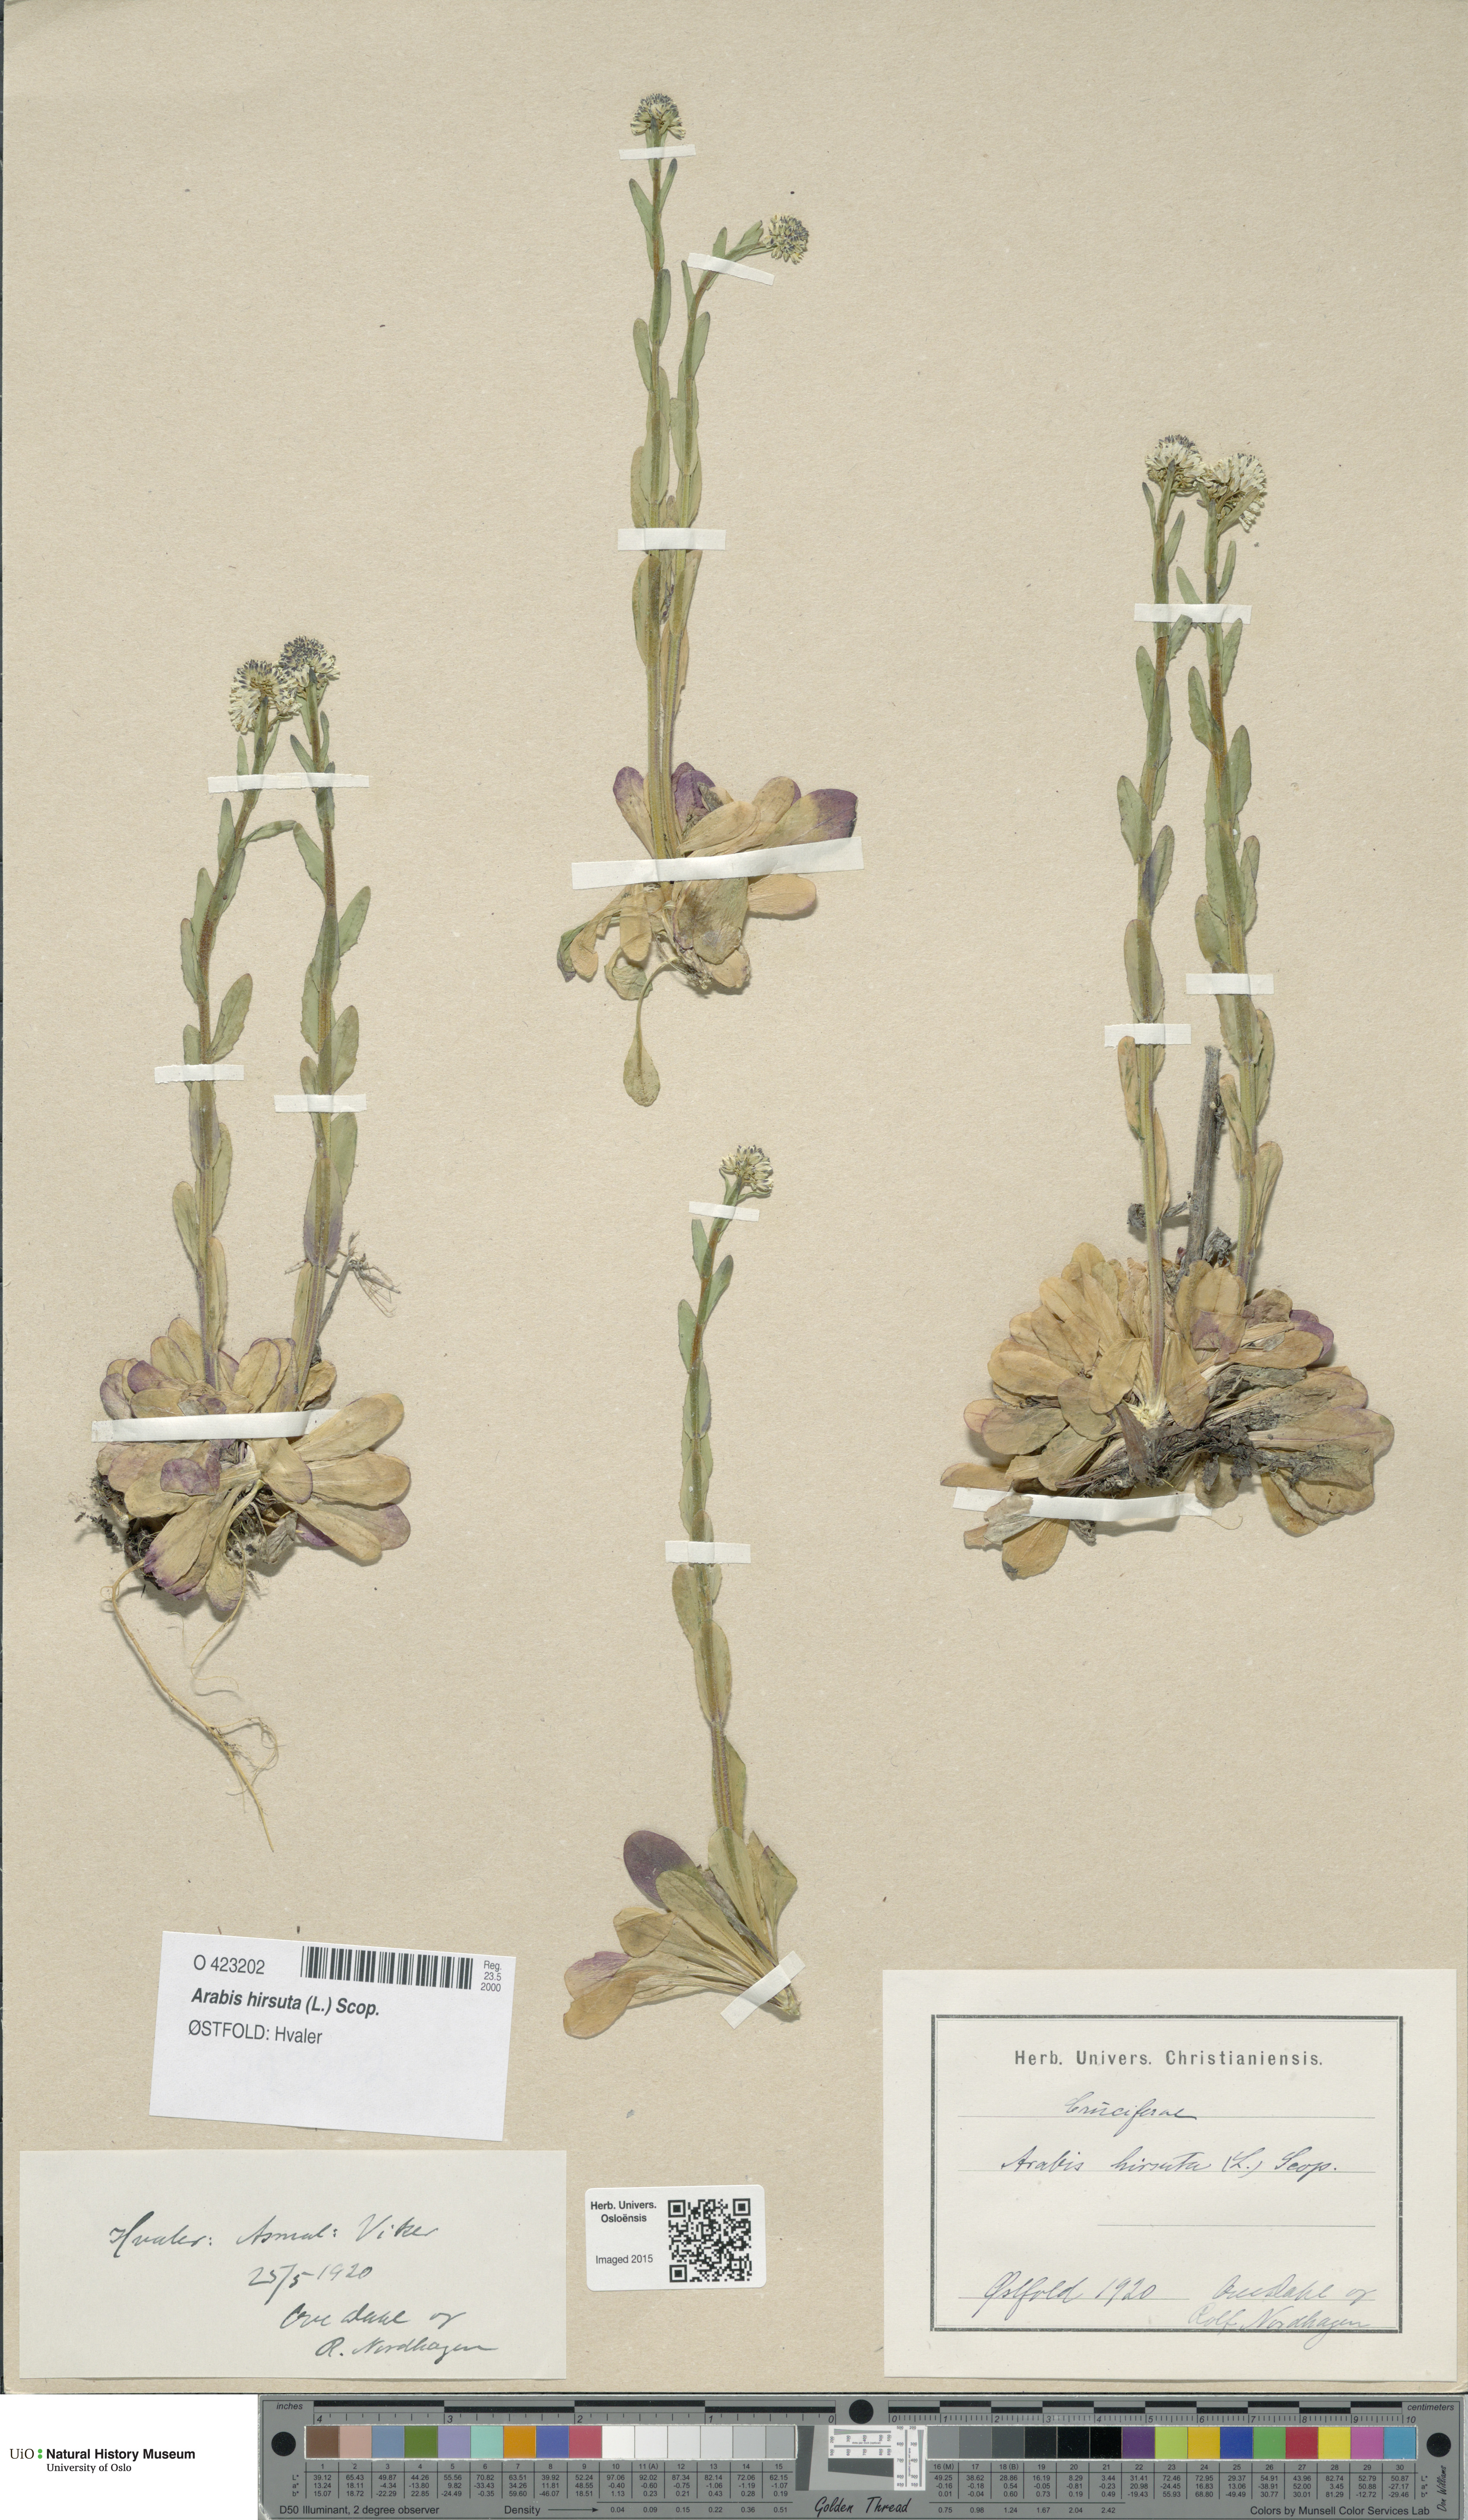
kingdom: Plantae
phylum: Tracheophyta
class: Magnoliopsida
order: Brassicales
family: Brassicaceae
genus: Arabis
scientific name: Arabis hirsuta
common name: Hairy rock-cress
